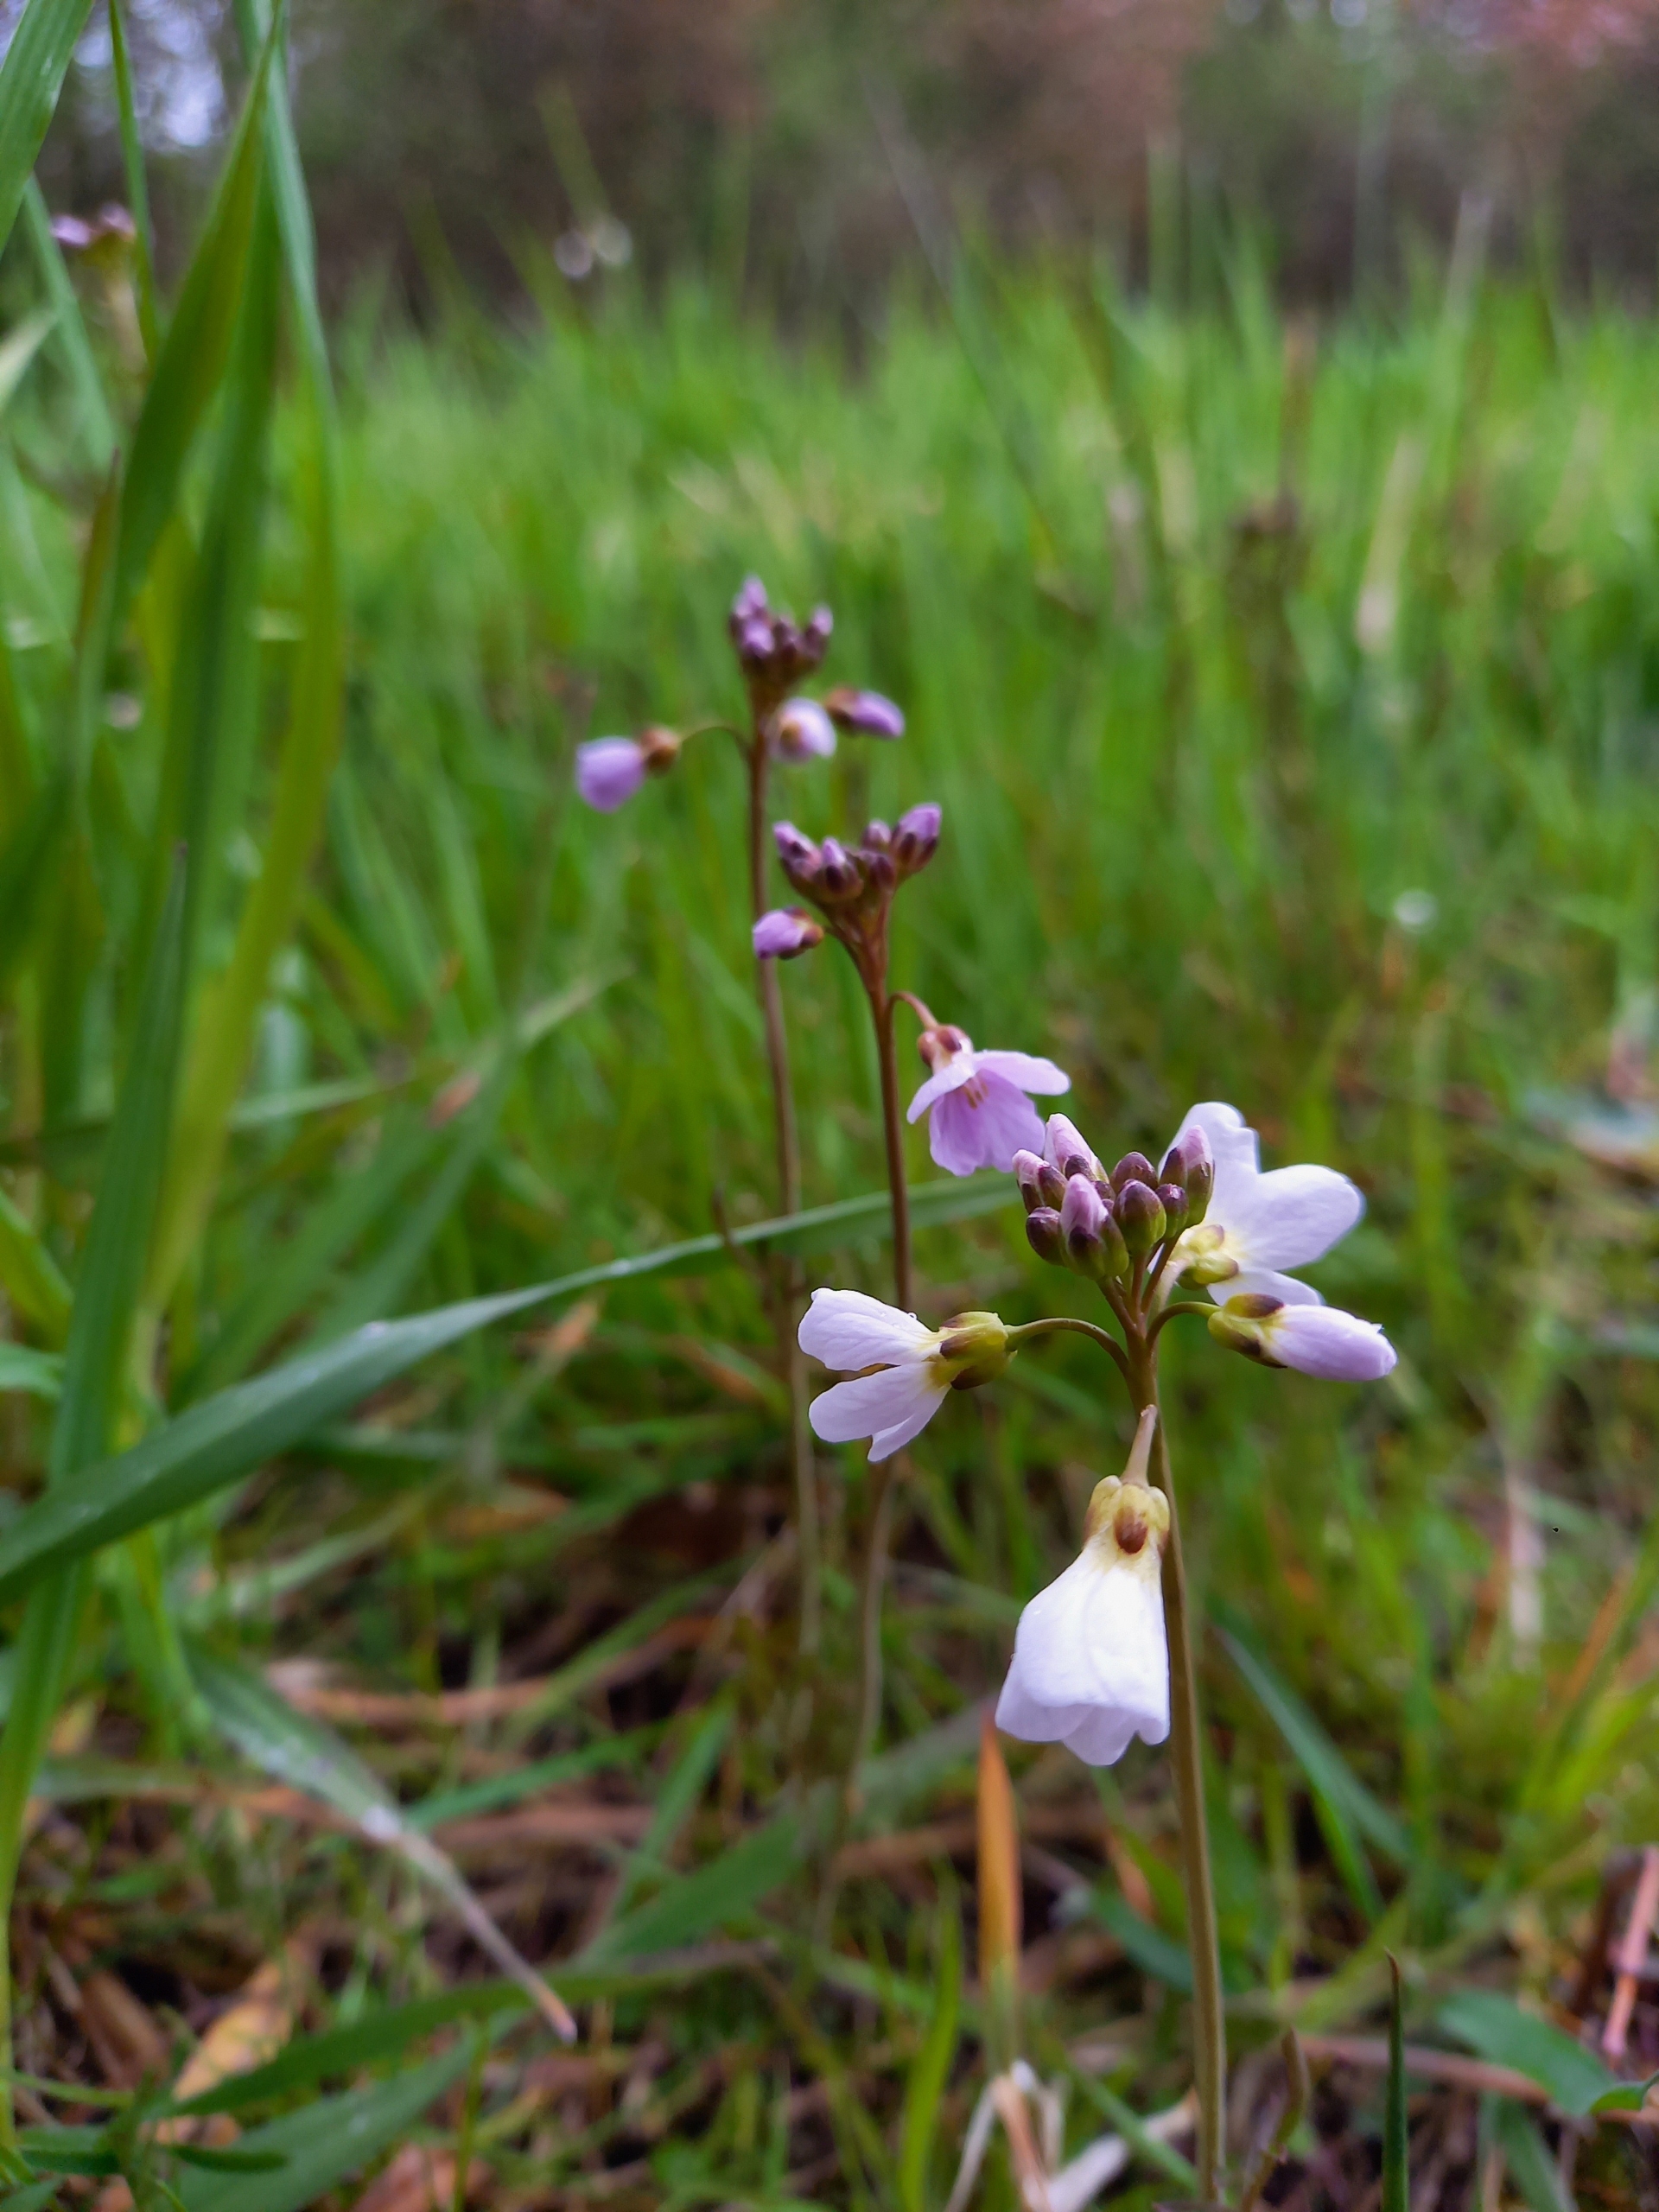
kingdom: Plantae
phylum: Tracheophyta
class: Magnoliopsida
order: Brassicales
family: Brassicaceae
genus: Cardamine
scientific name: Cardamine pratensis
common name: Engkarse
